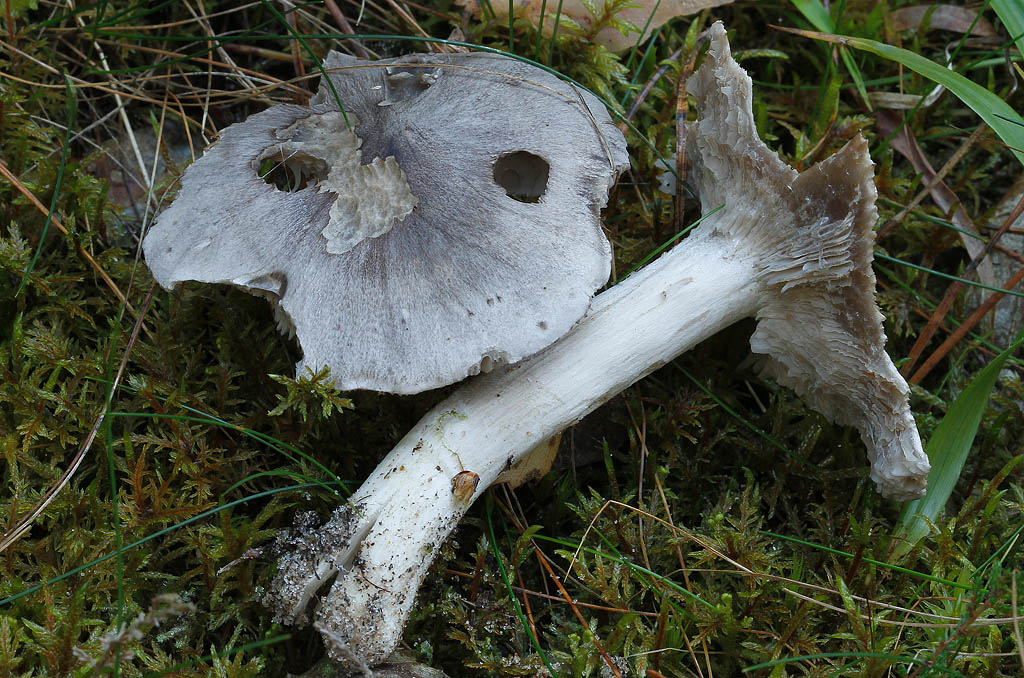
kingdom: Fungi
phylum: Basidiomycota
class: Agaricomycetes
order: Agaricales
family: Tricholomataceae
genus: Tricholoma
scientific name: Tricholoma virgatum
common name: nålestribet ridderhat
